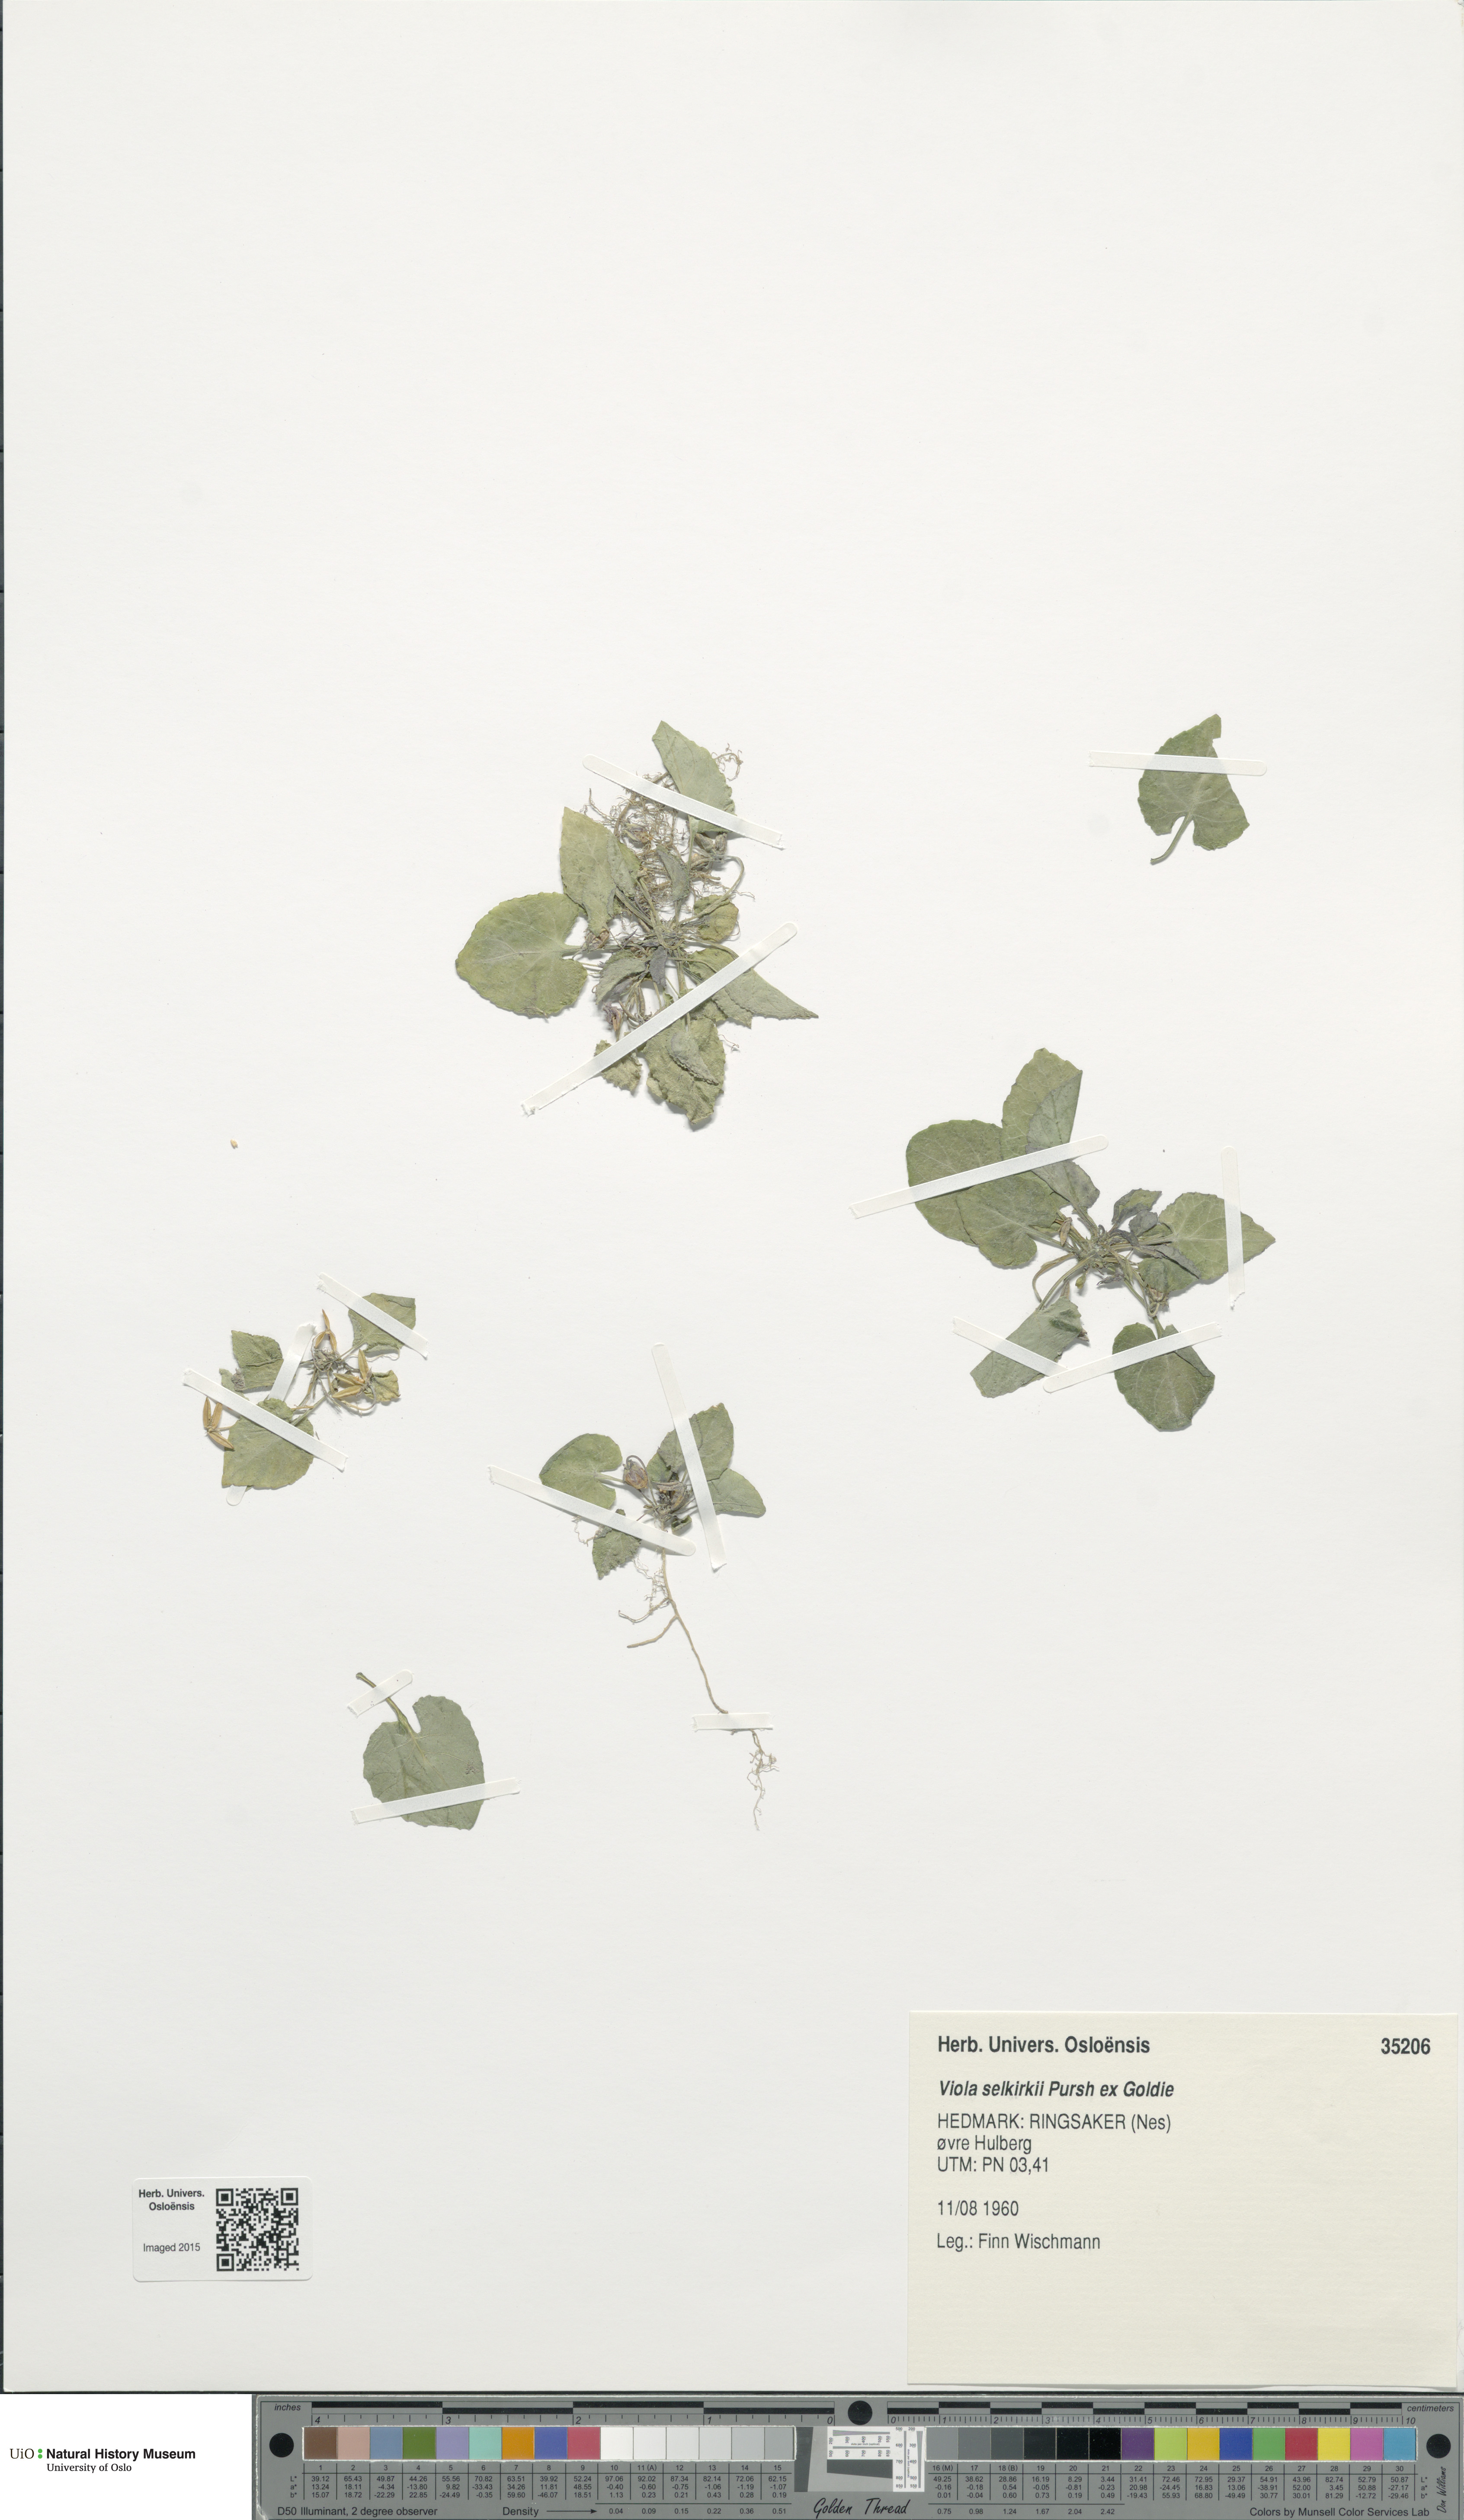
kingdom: Plantae
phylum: Tracheophyta
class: Magnoliopsida
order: Malpighiales
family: Violaceae
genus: Viola
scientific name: Viola selkirkii
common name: Selkirk's violet
